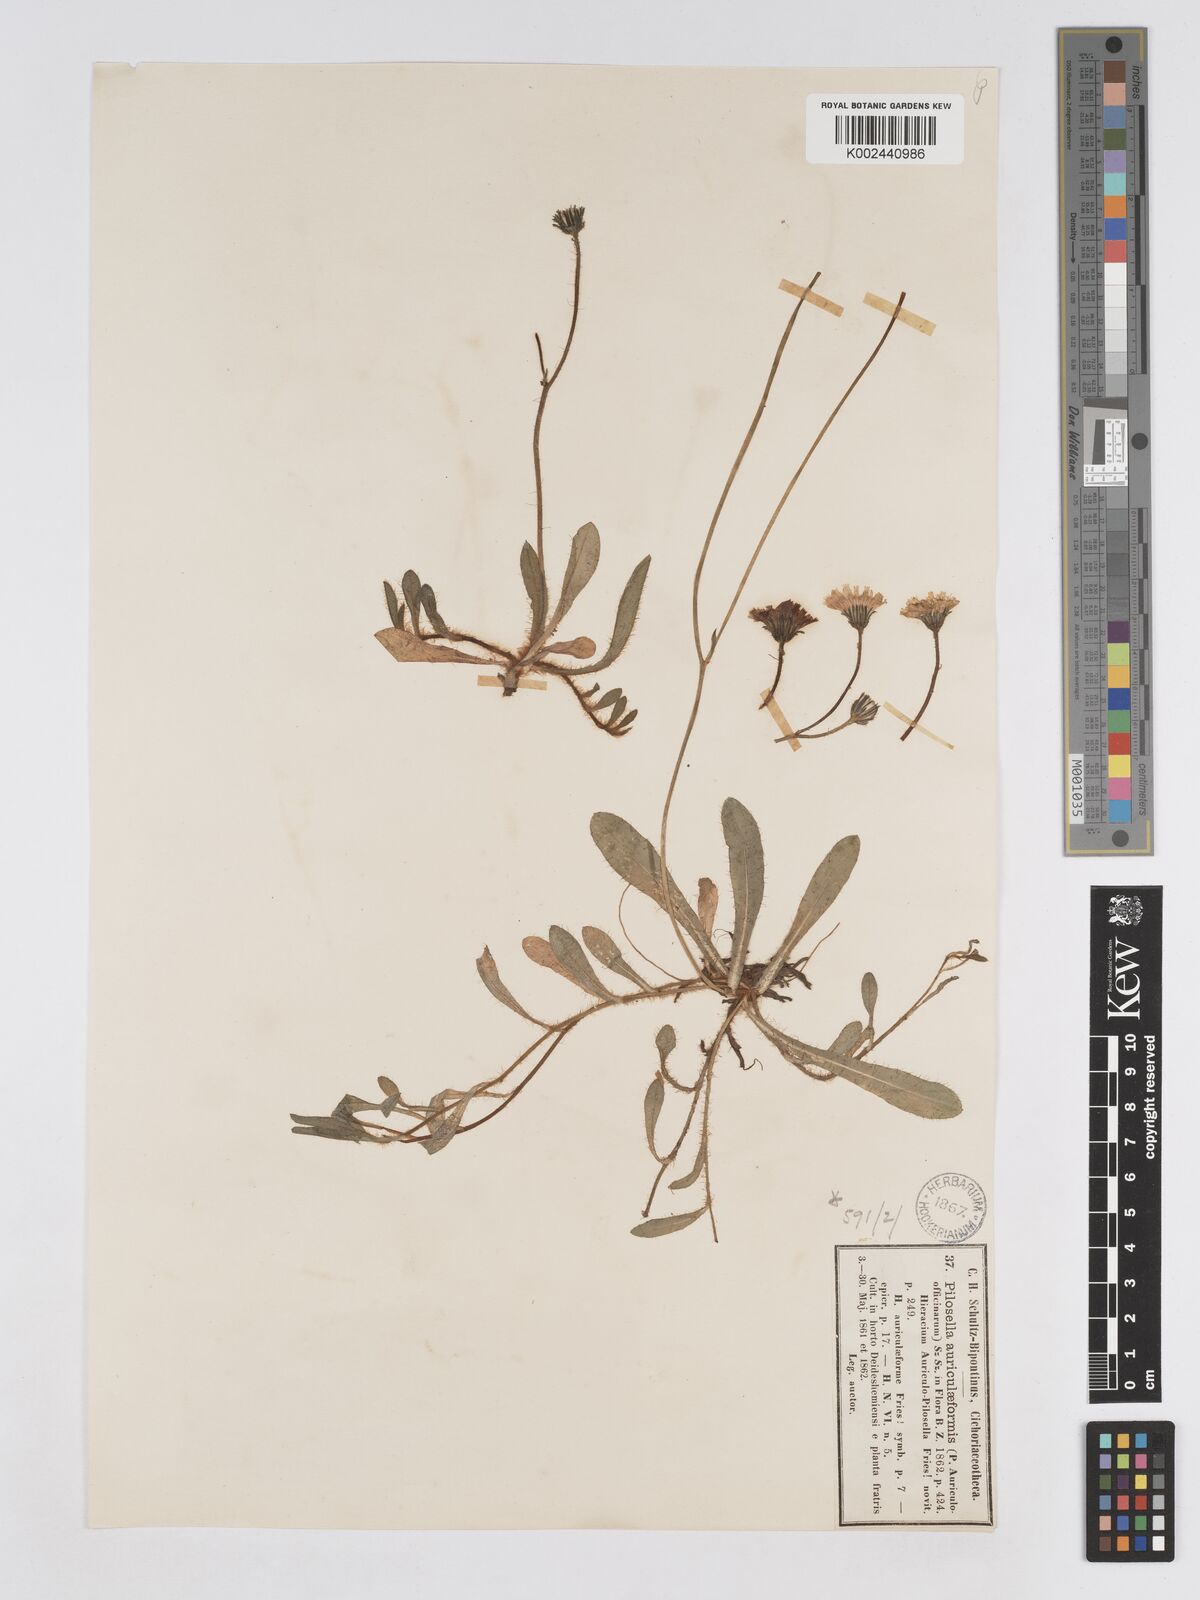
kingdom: Plantae
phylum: Tracheophyta
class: Magnoliopsida
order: Asterales
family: Asteraceae
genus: Pilosella
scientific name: Pilosella schultesii
